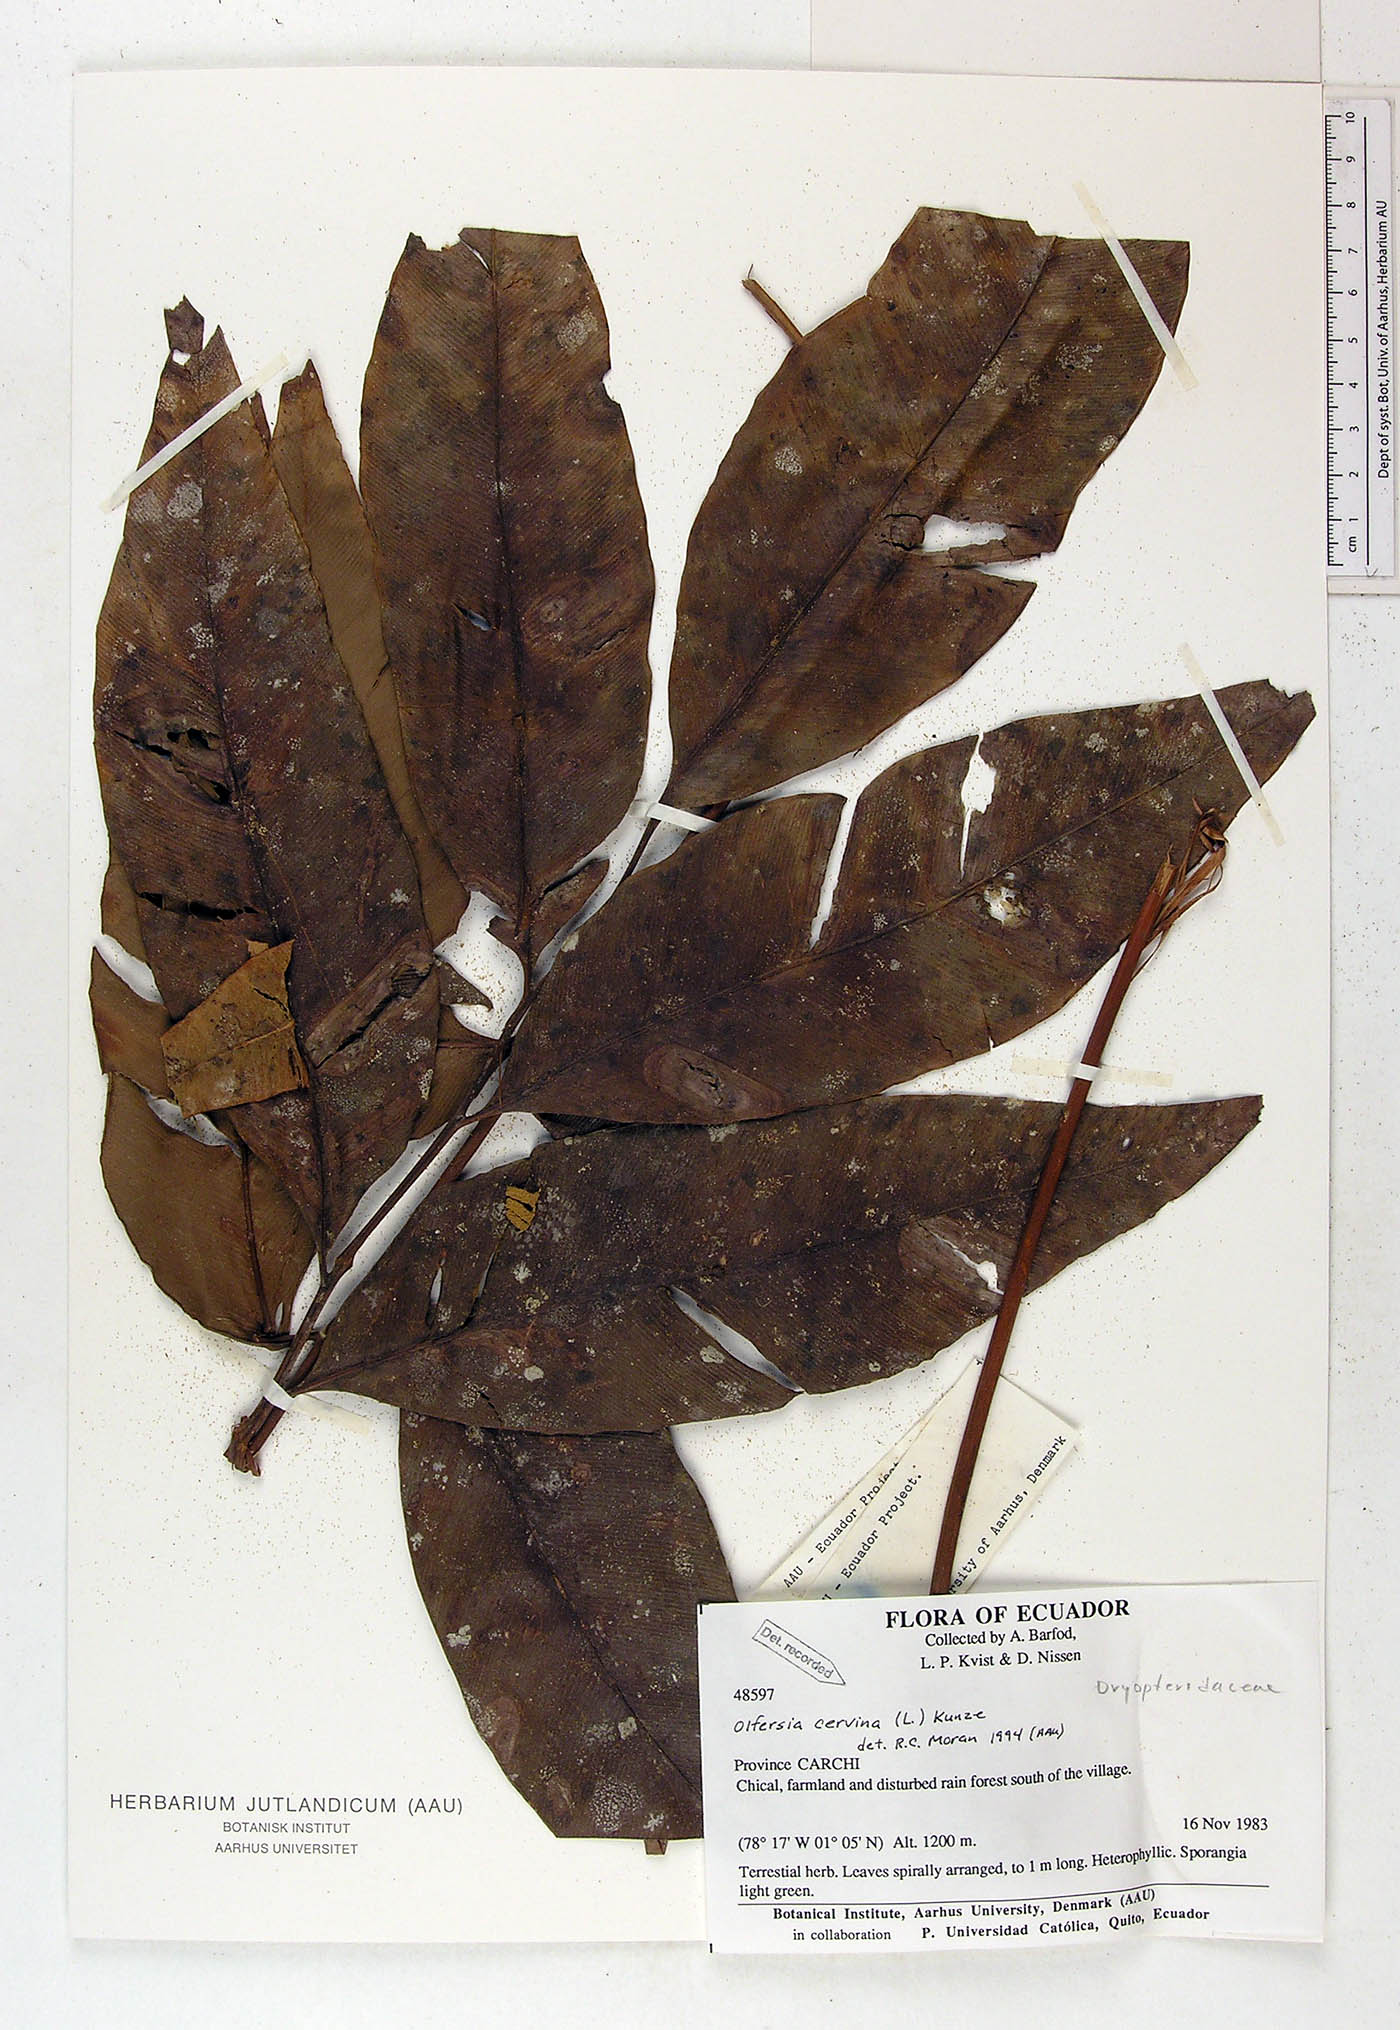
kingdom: Plantae
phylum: Tracheophyta
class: Polypodiopsida
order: Polypodiales
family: Dryopteridaceae
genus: Olfersia
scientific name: Olfersia cervina
